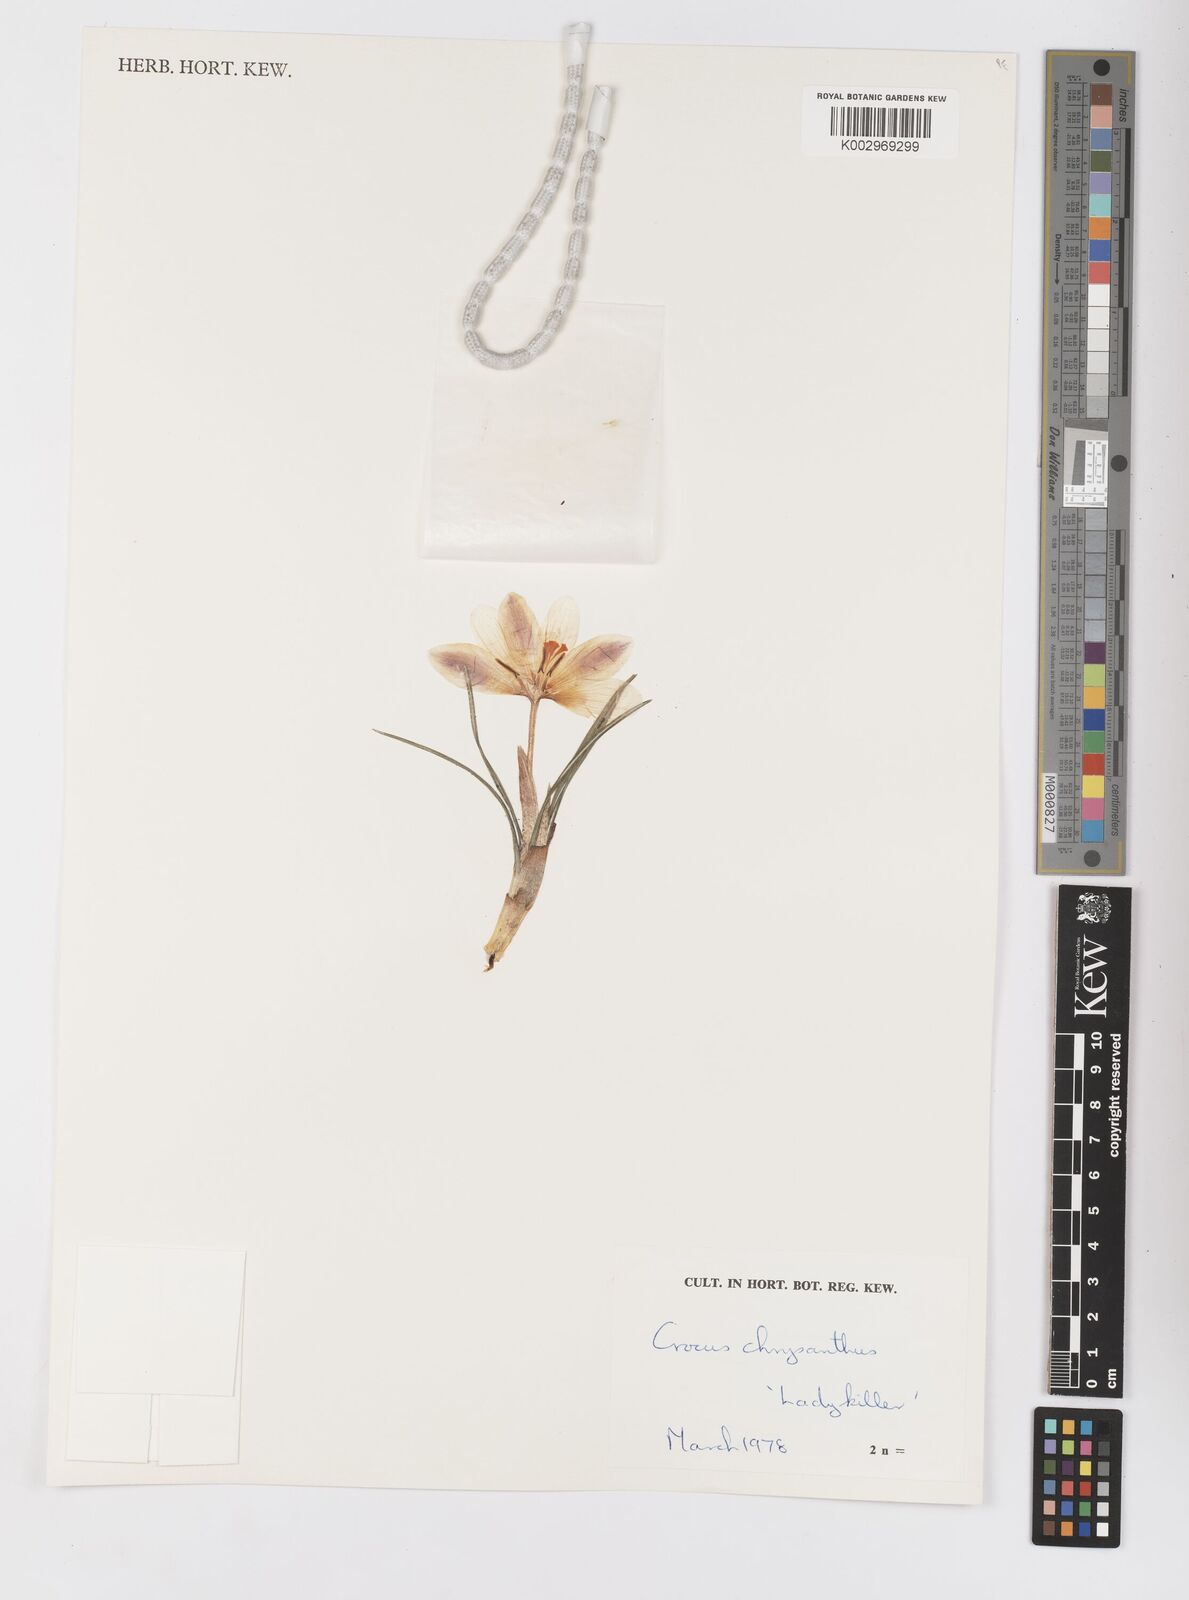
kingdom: Plantae
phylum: Tracheophyta
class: Liliopsida
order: Asparagales
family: Iridaceae
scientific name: Iridaceae
